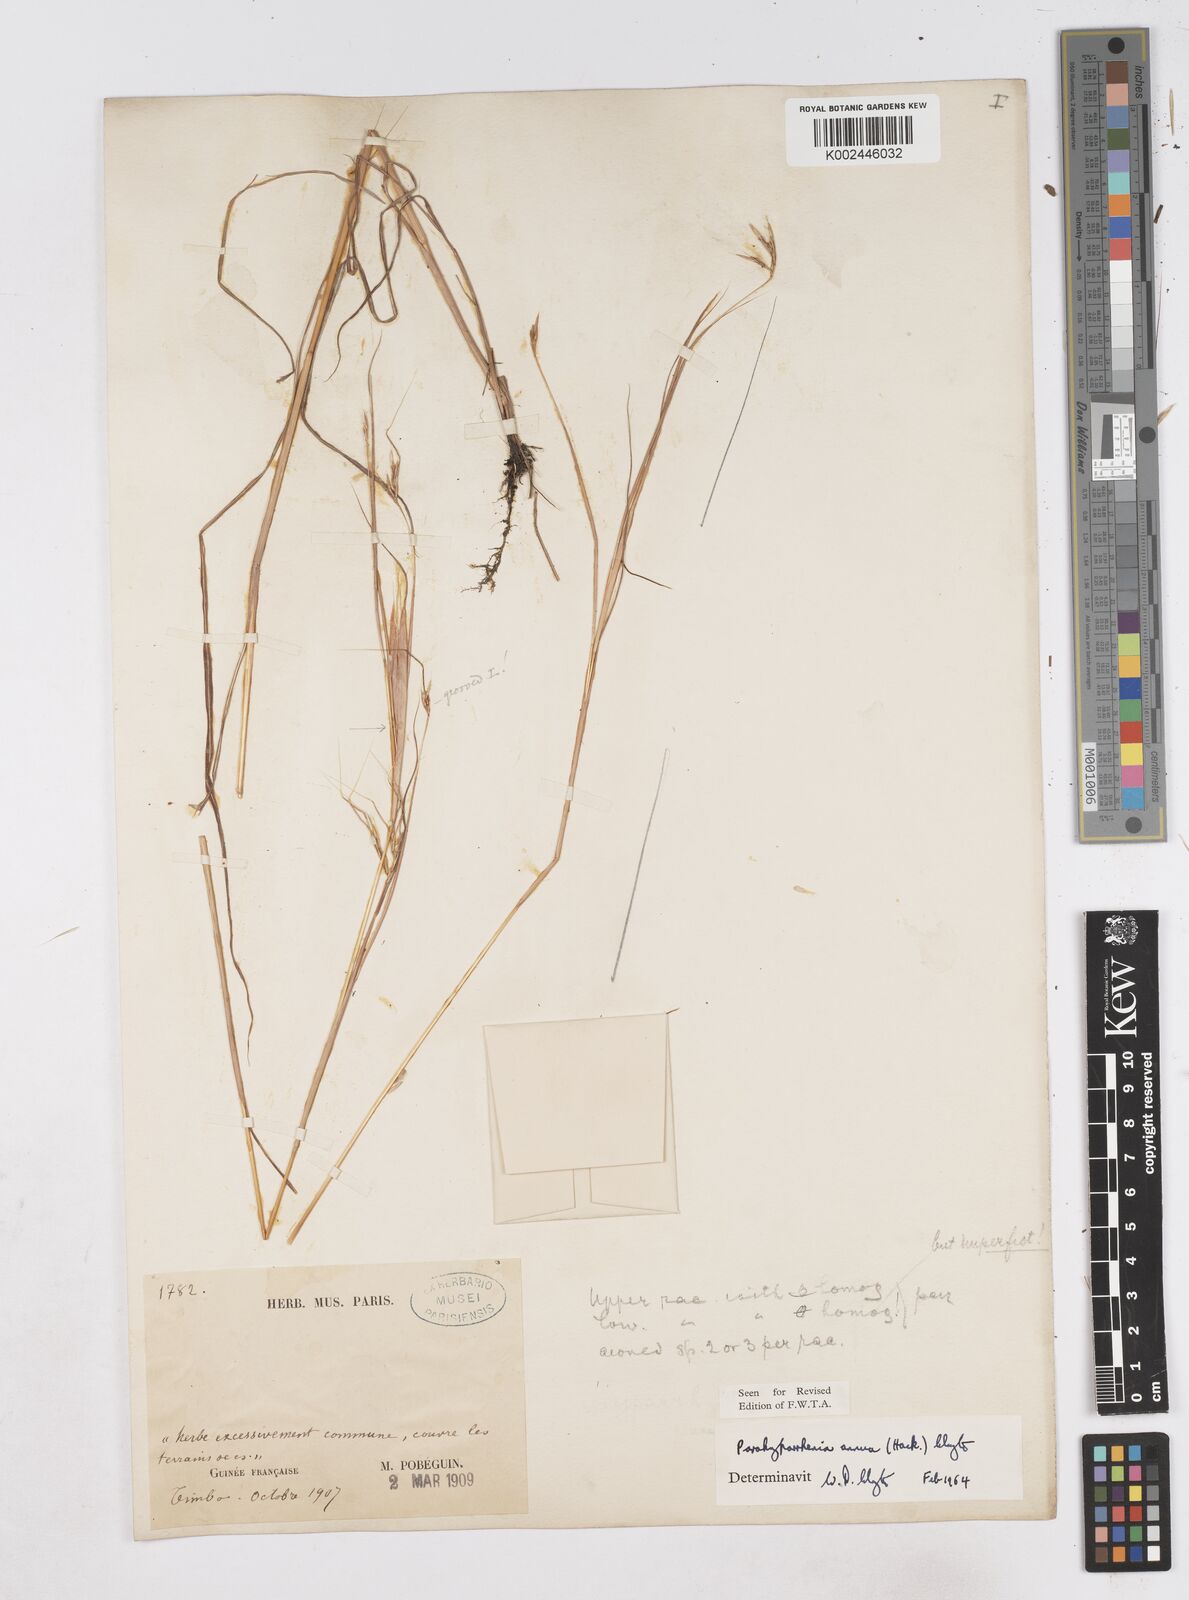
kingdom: Plantae
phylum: Tracheophyta
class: Liliopsida
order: Poales
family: Poaceae
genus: Parahyparrhenia
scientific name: Parahyparrhenia annua
